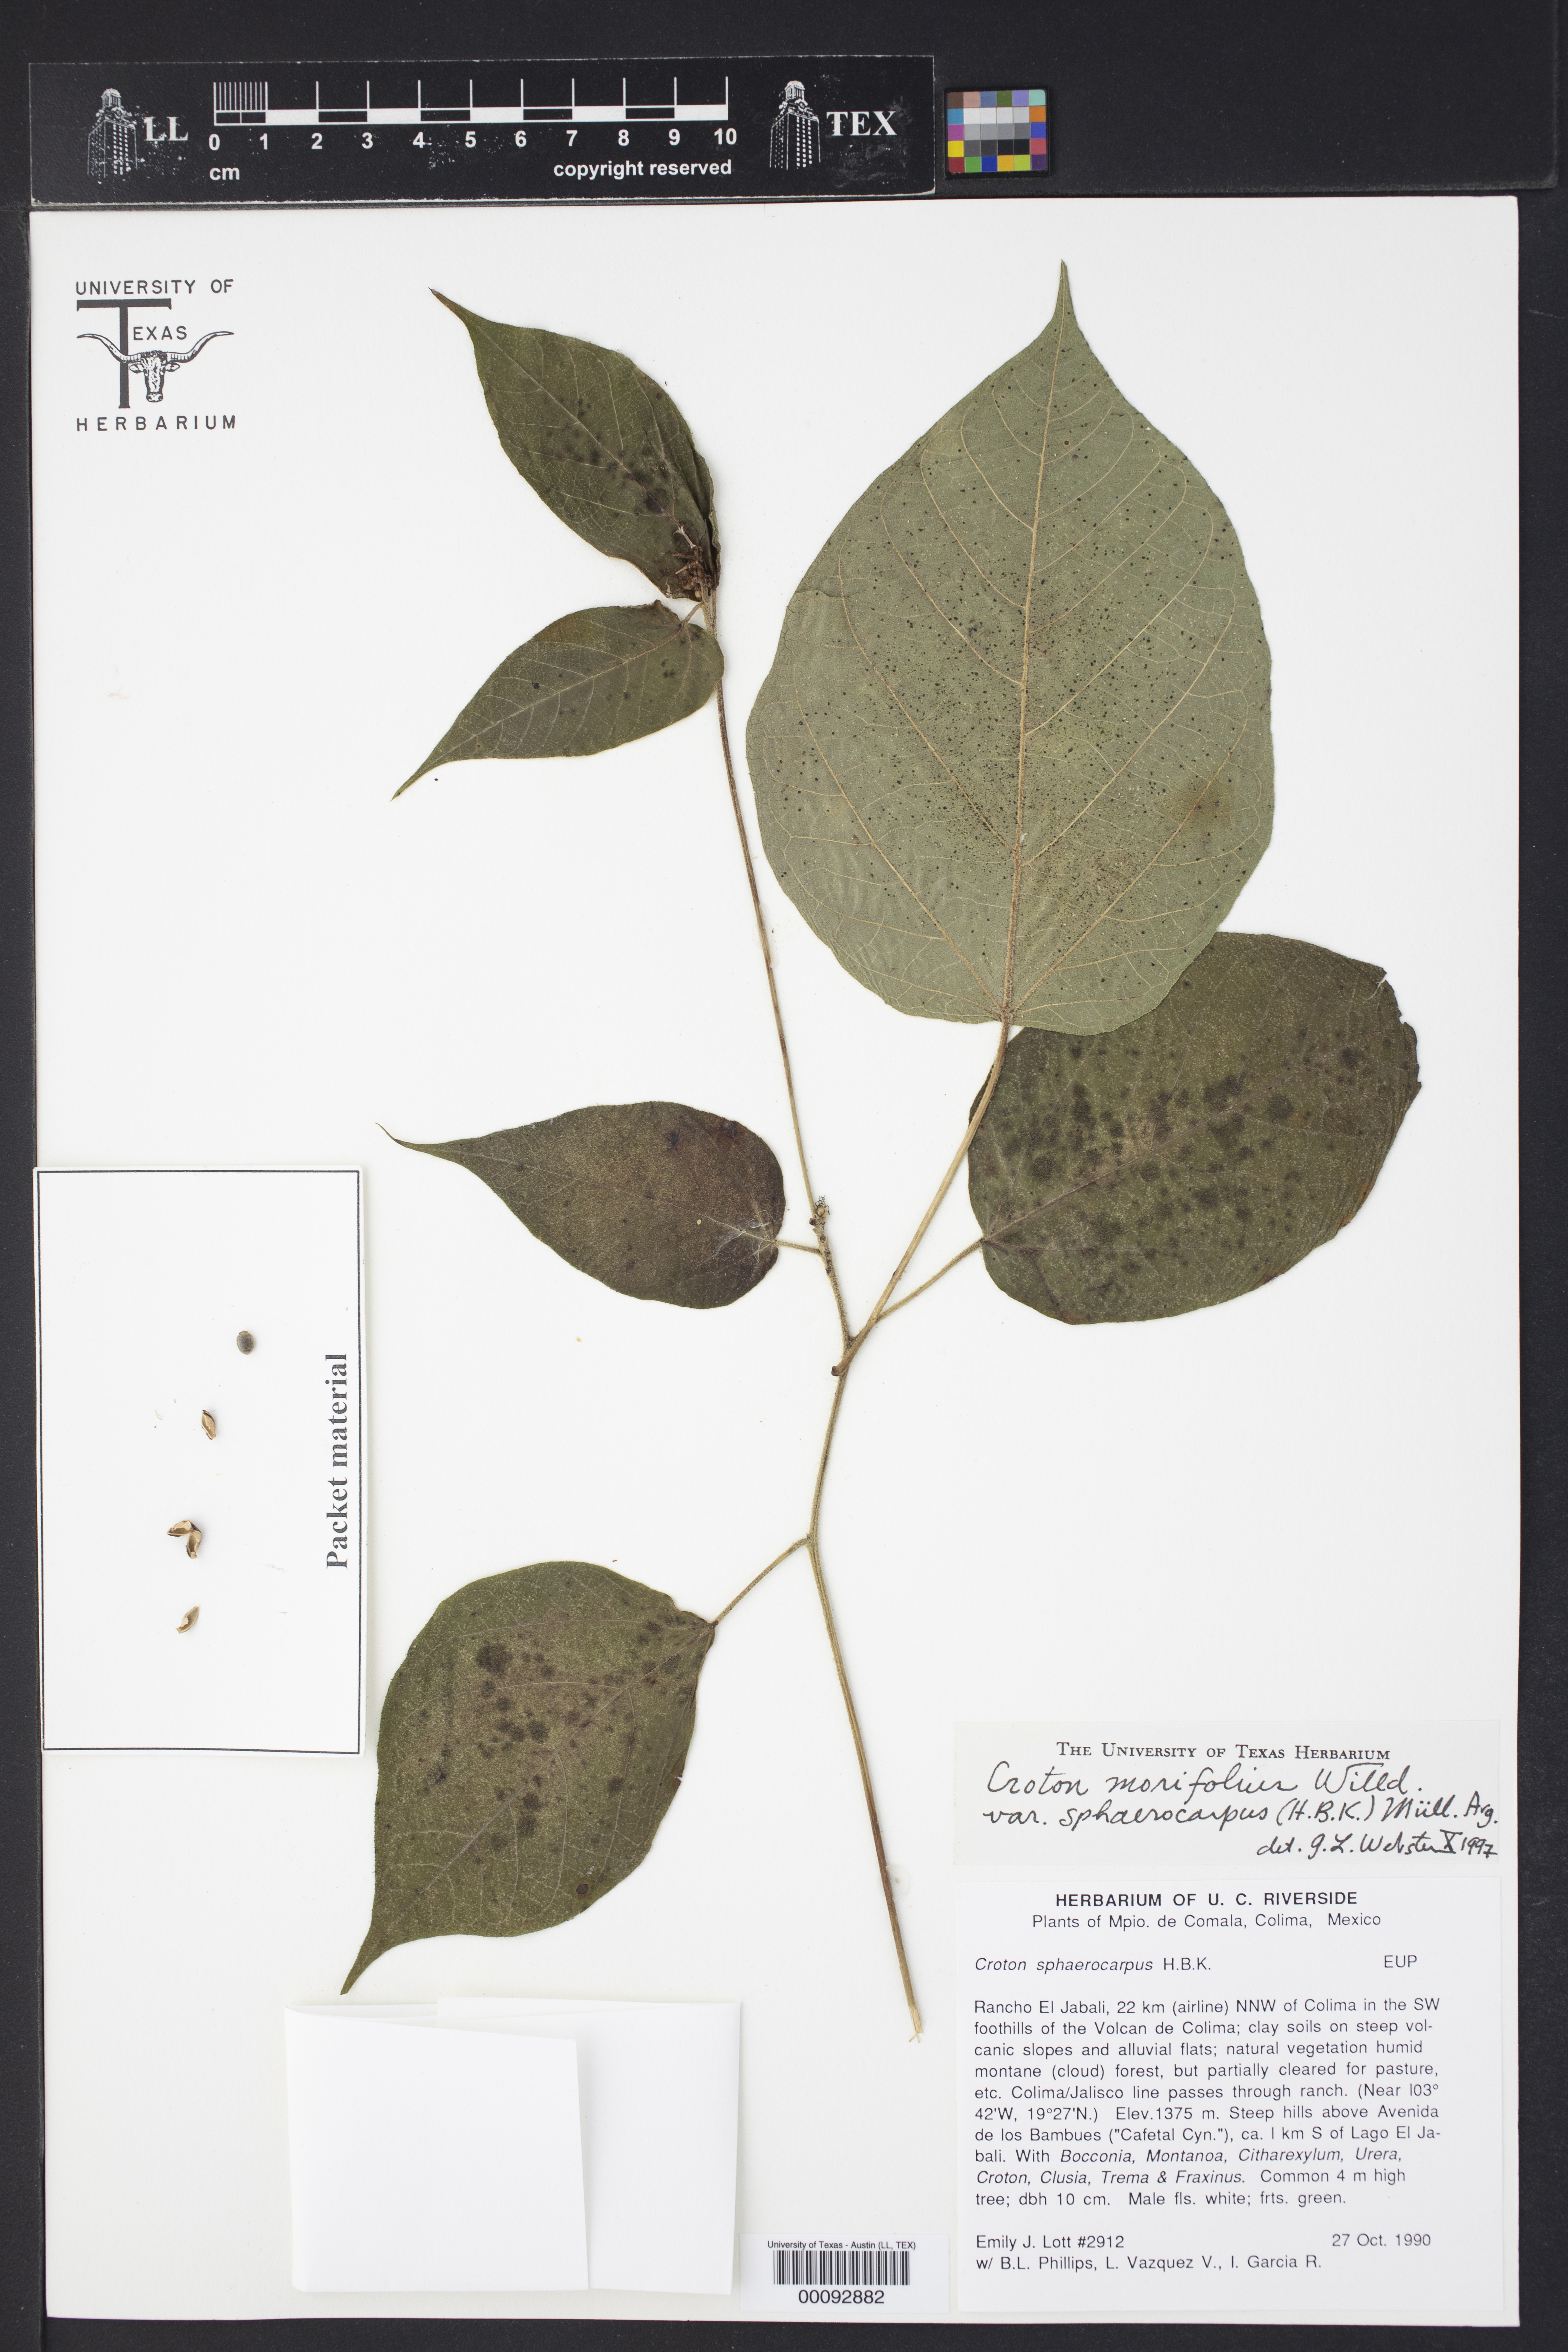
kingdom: Plantae
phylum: Tracheophyta
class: Magnoliopsida
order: Malpighiales
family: Euphorbiaceae
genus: Croton
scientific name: Croton morifolius
